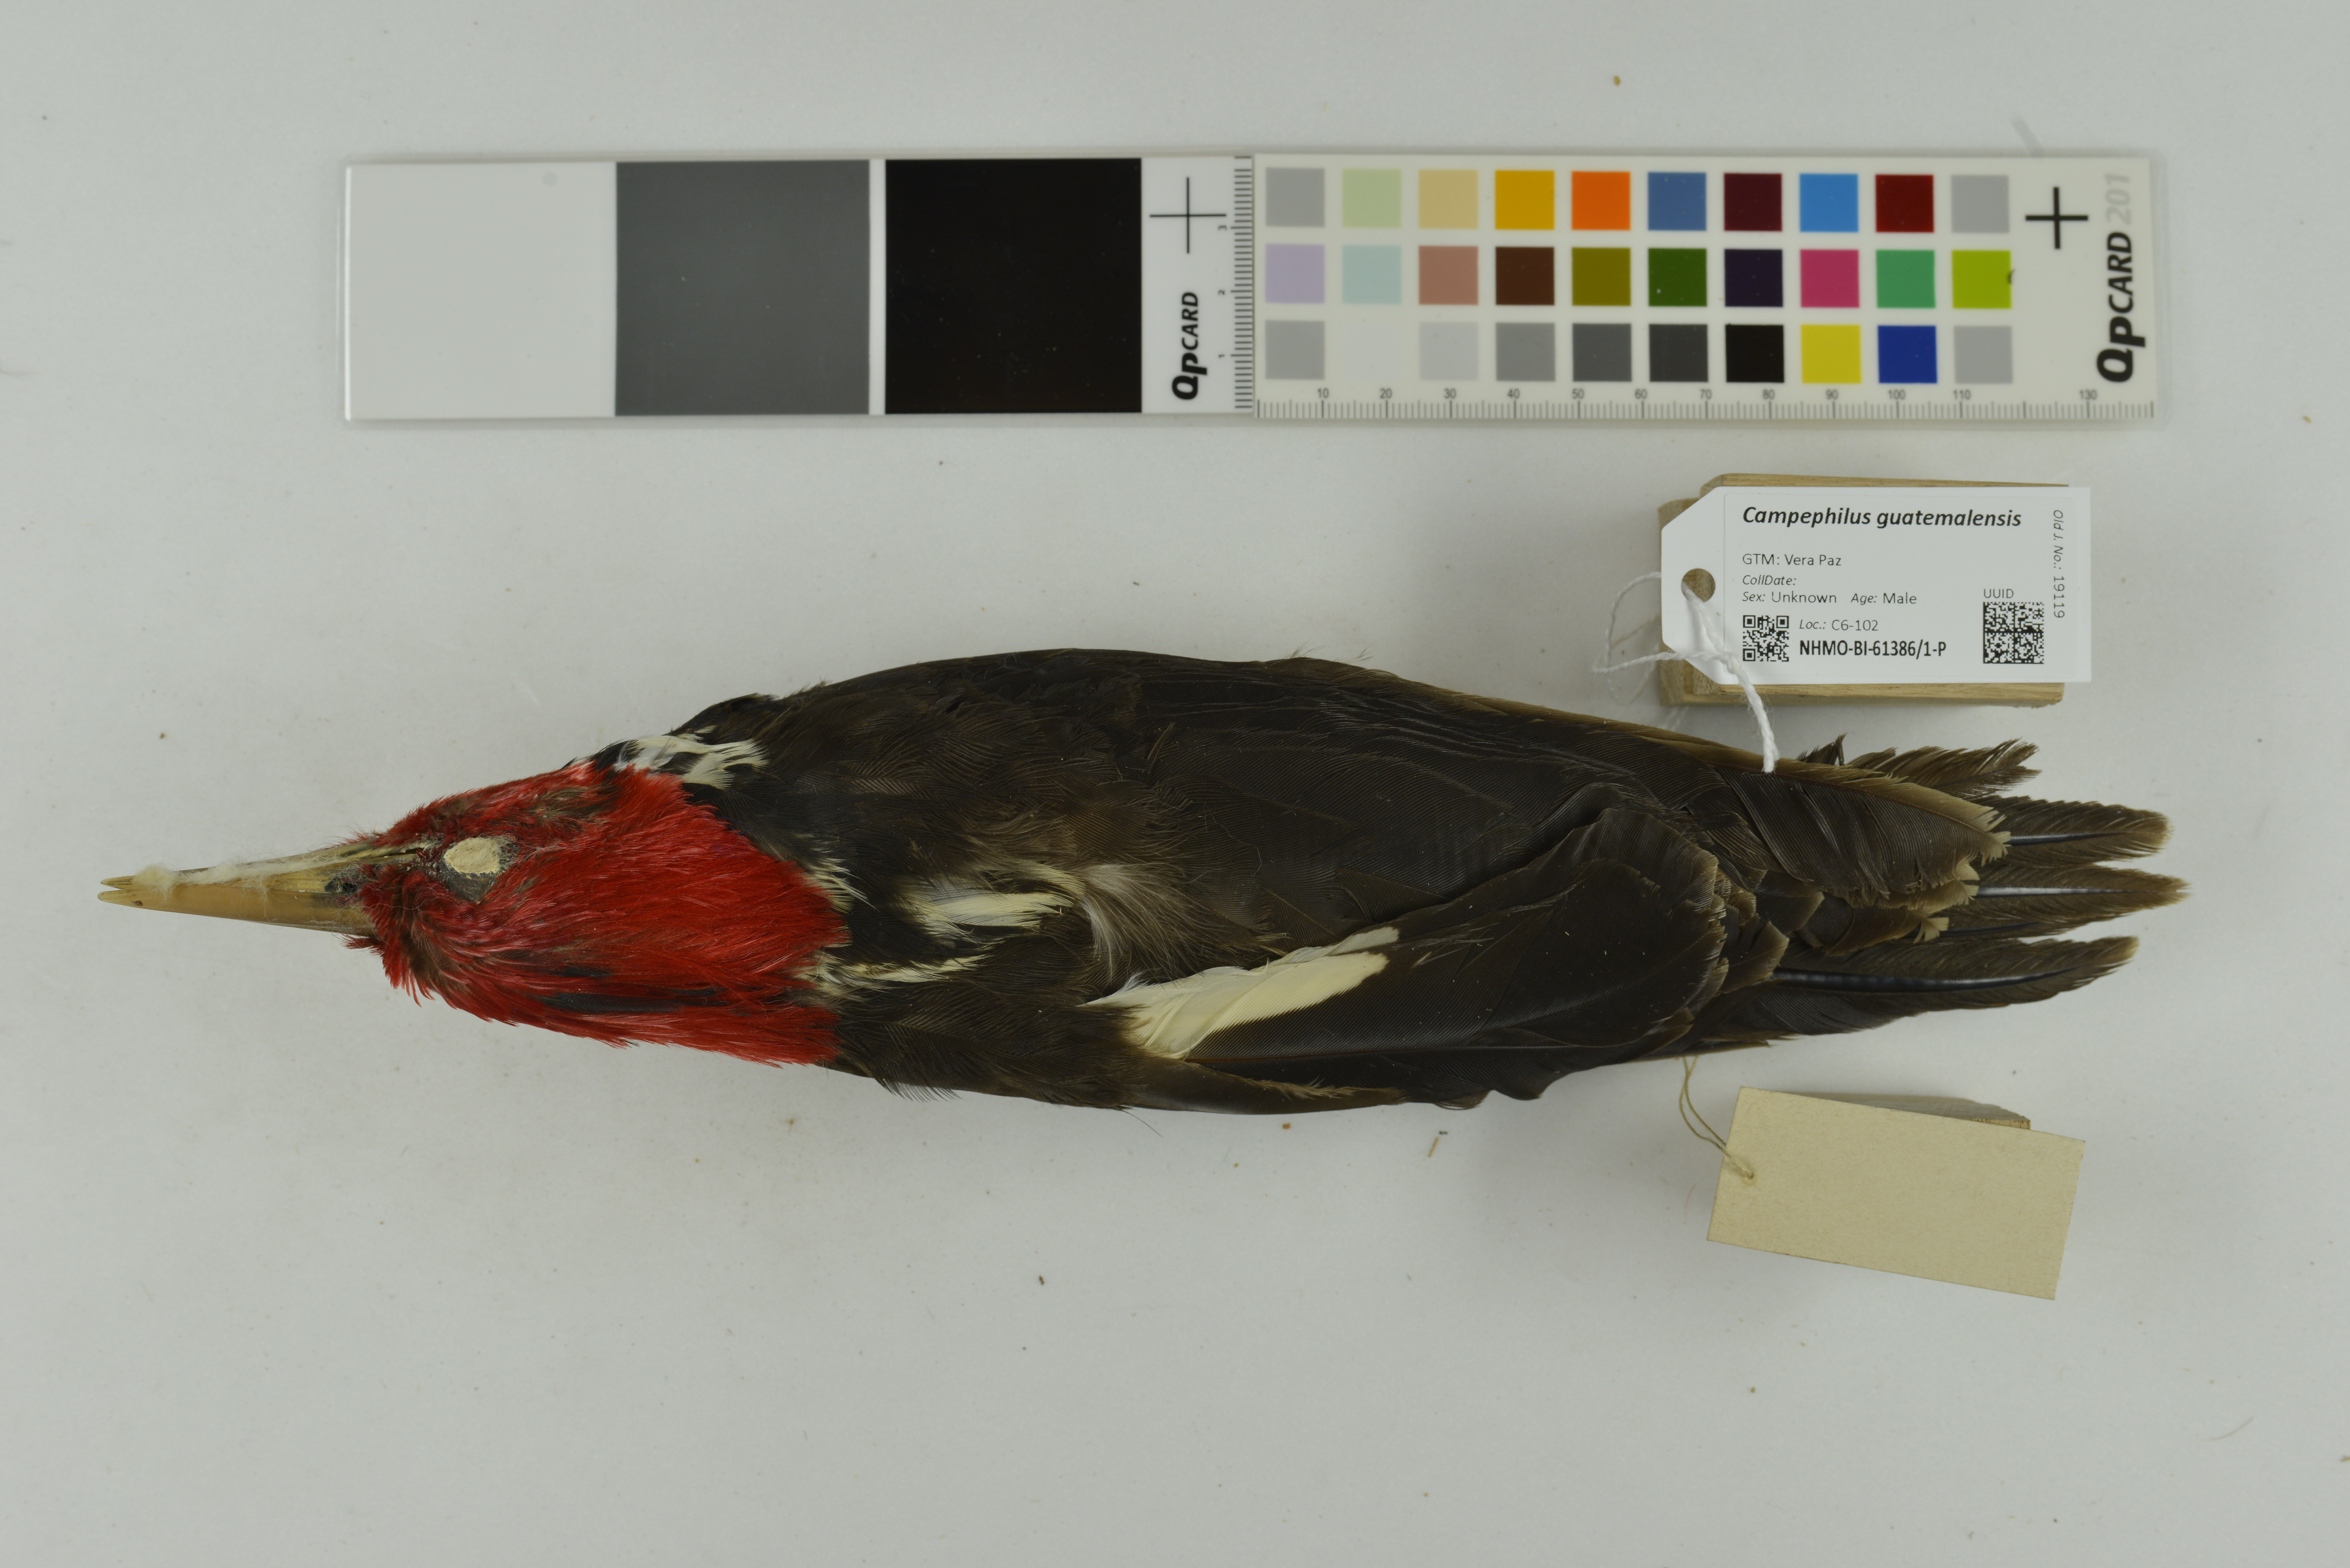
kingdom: Animalia
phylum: Chordata
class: Aves
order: Piciformes
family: Picidae
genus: Campephilus
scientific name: Campephilus guatemalensis
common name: Pale-billed woodpecker
